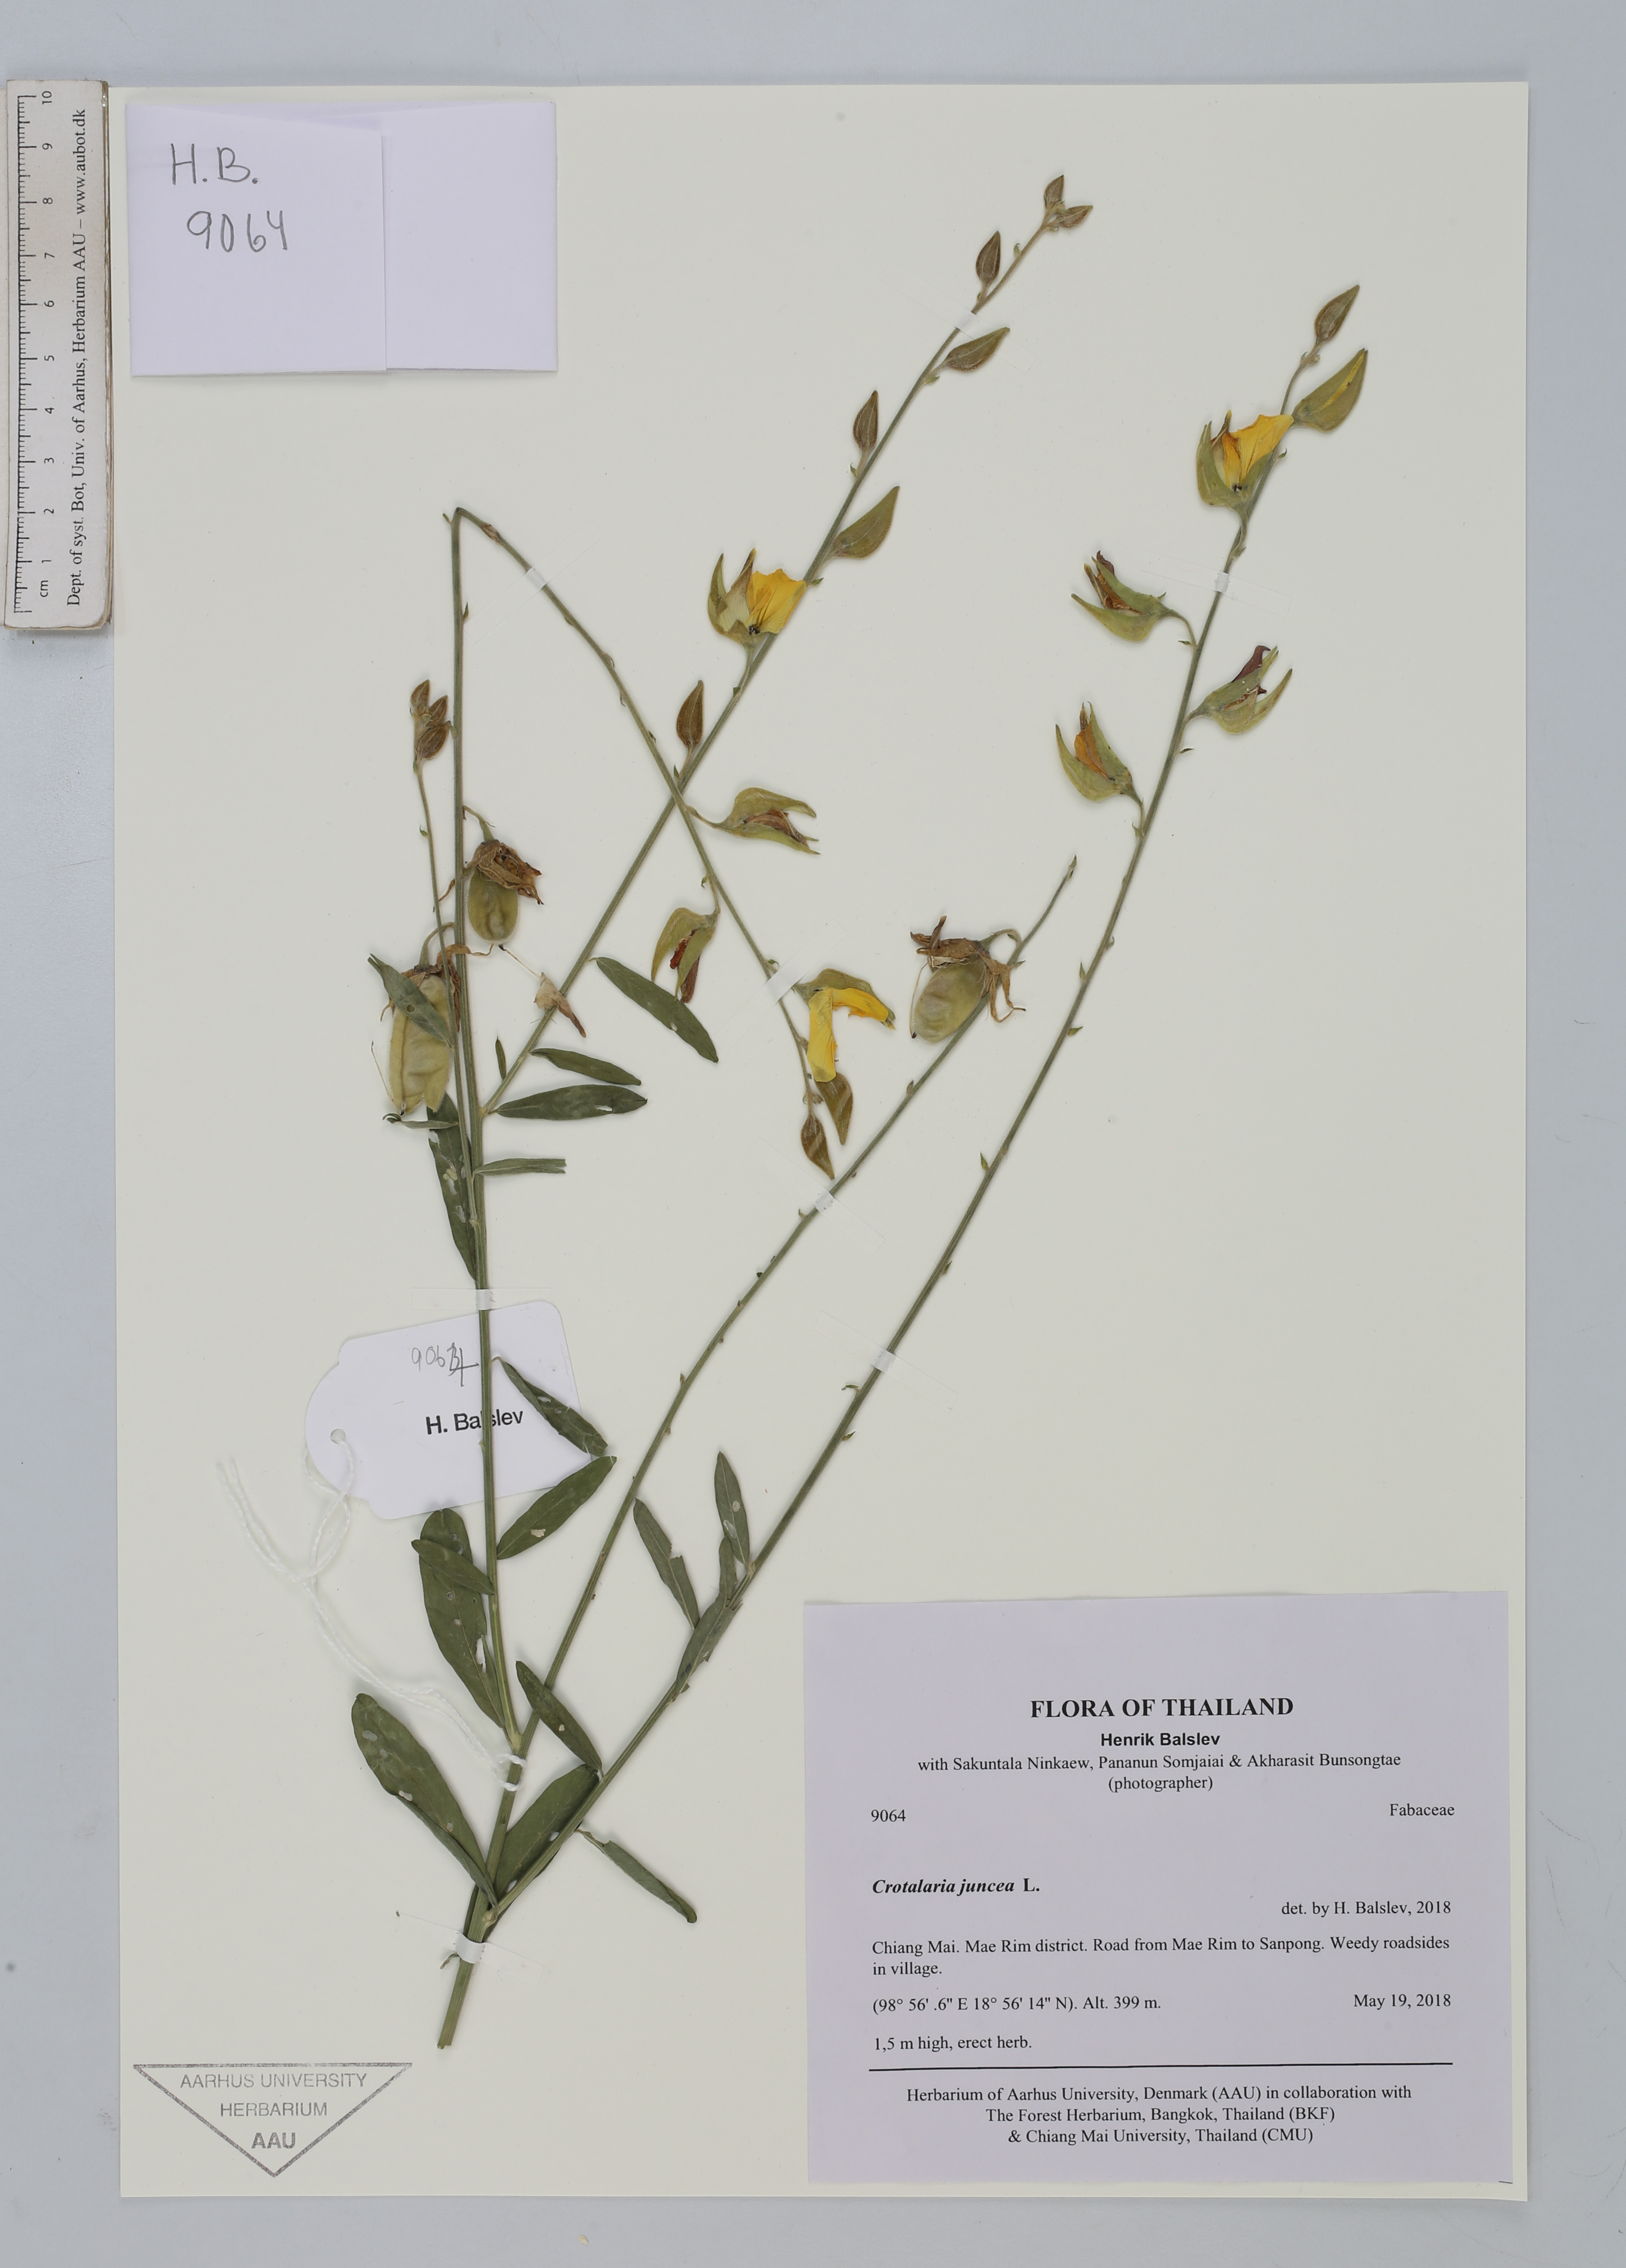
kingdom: Plantae
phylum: Tracheophyta
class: Magnoliopsida
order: Fabales
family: Fabaceae
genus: Crotalaria
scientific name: Crotalaria juncea
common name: Sunn hemp
